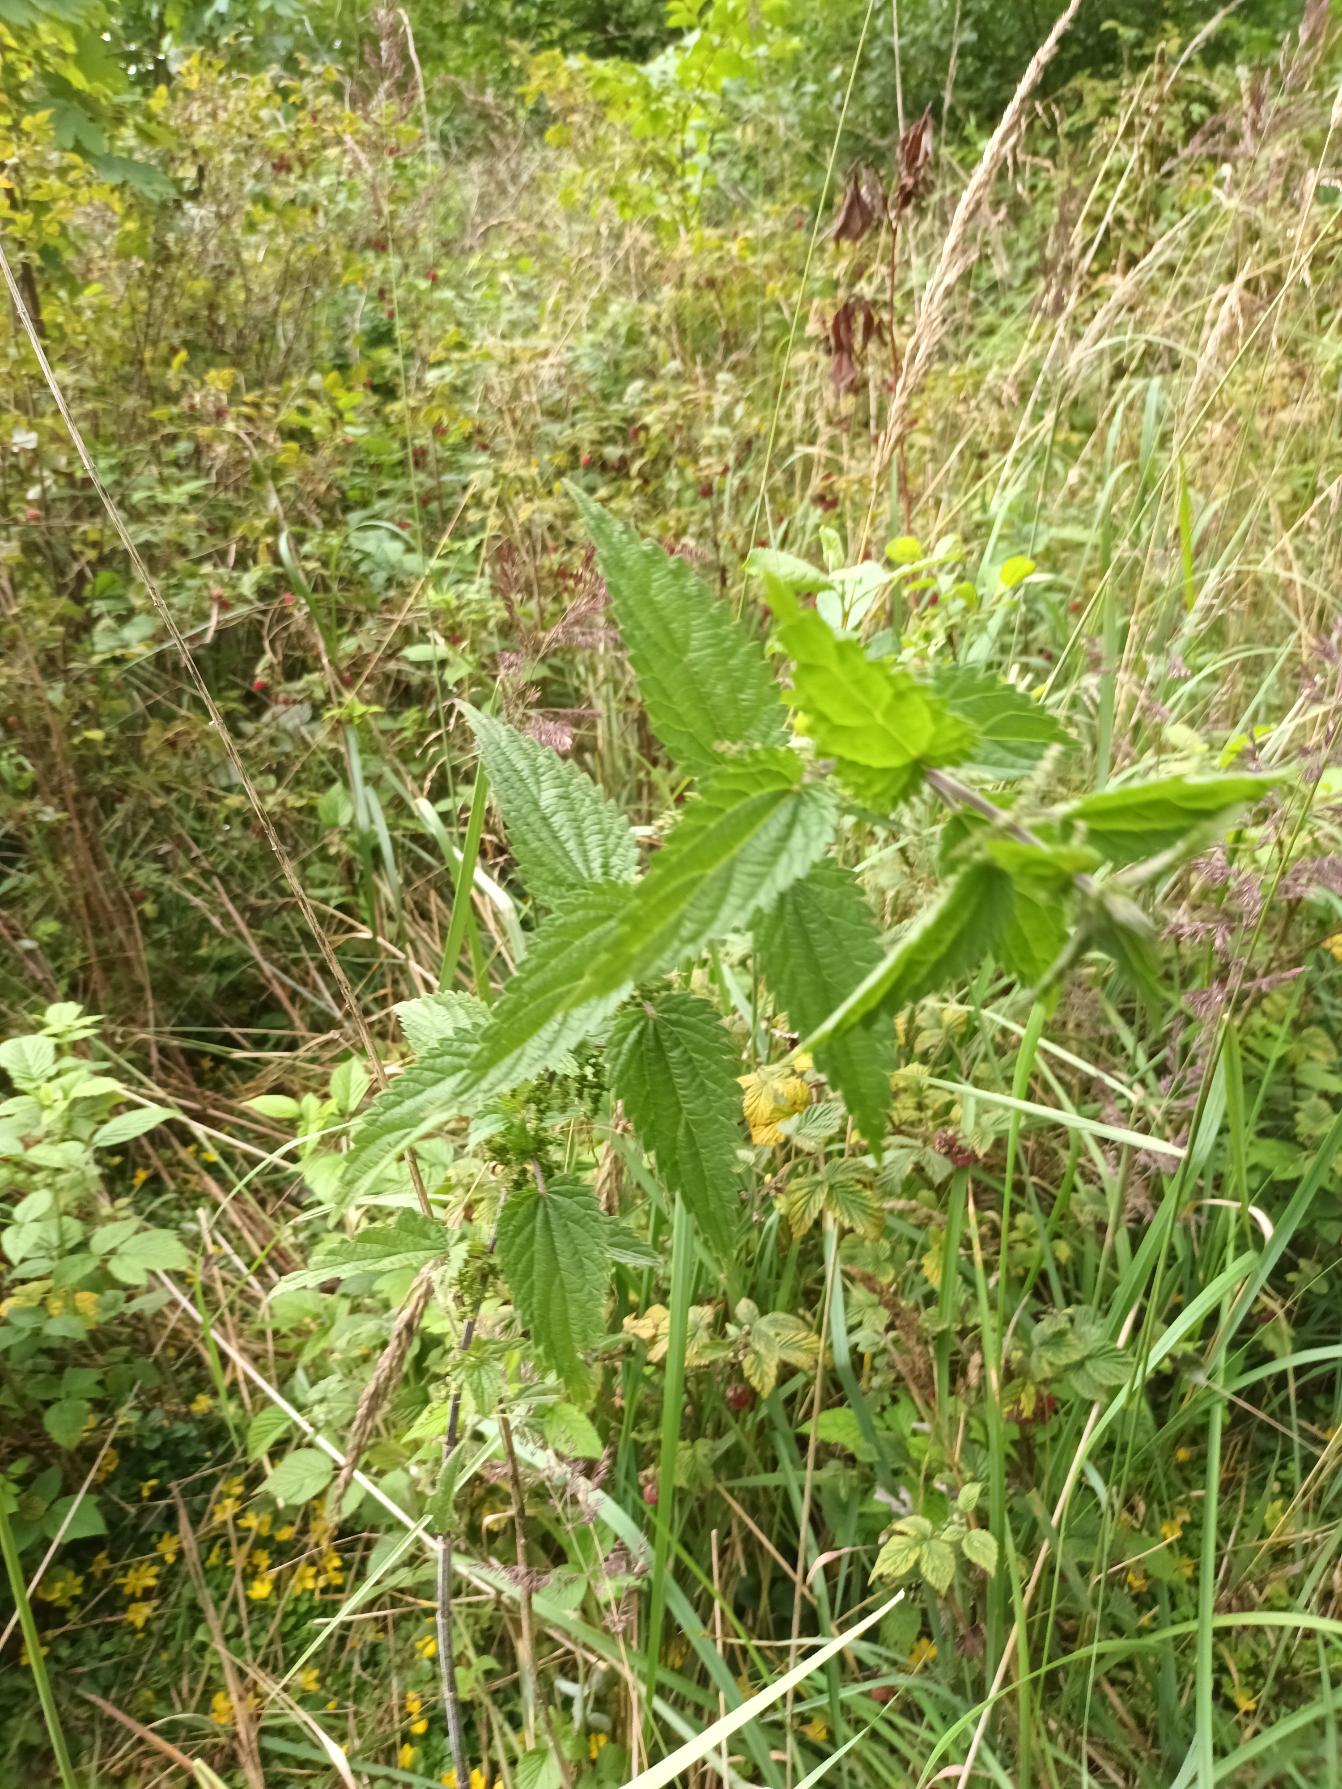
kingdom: Plantae
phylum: Tracheophyta
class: Magnoliopsida
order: Rosales
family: Urticaceae
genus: Urtica
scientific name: Urtica dioica
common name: Stor nælde
